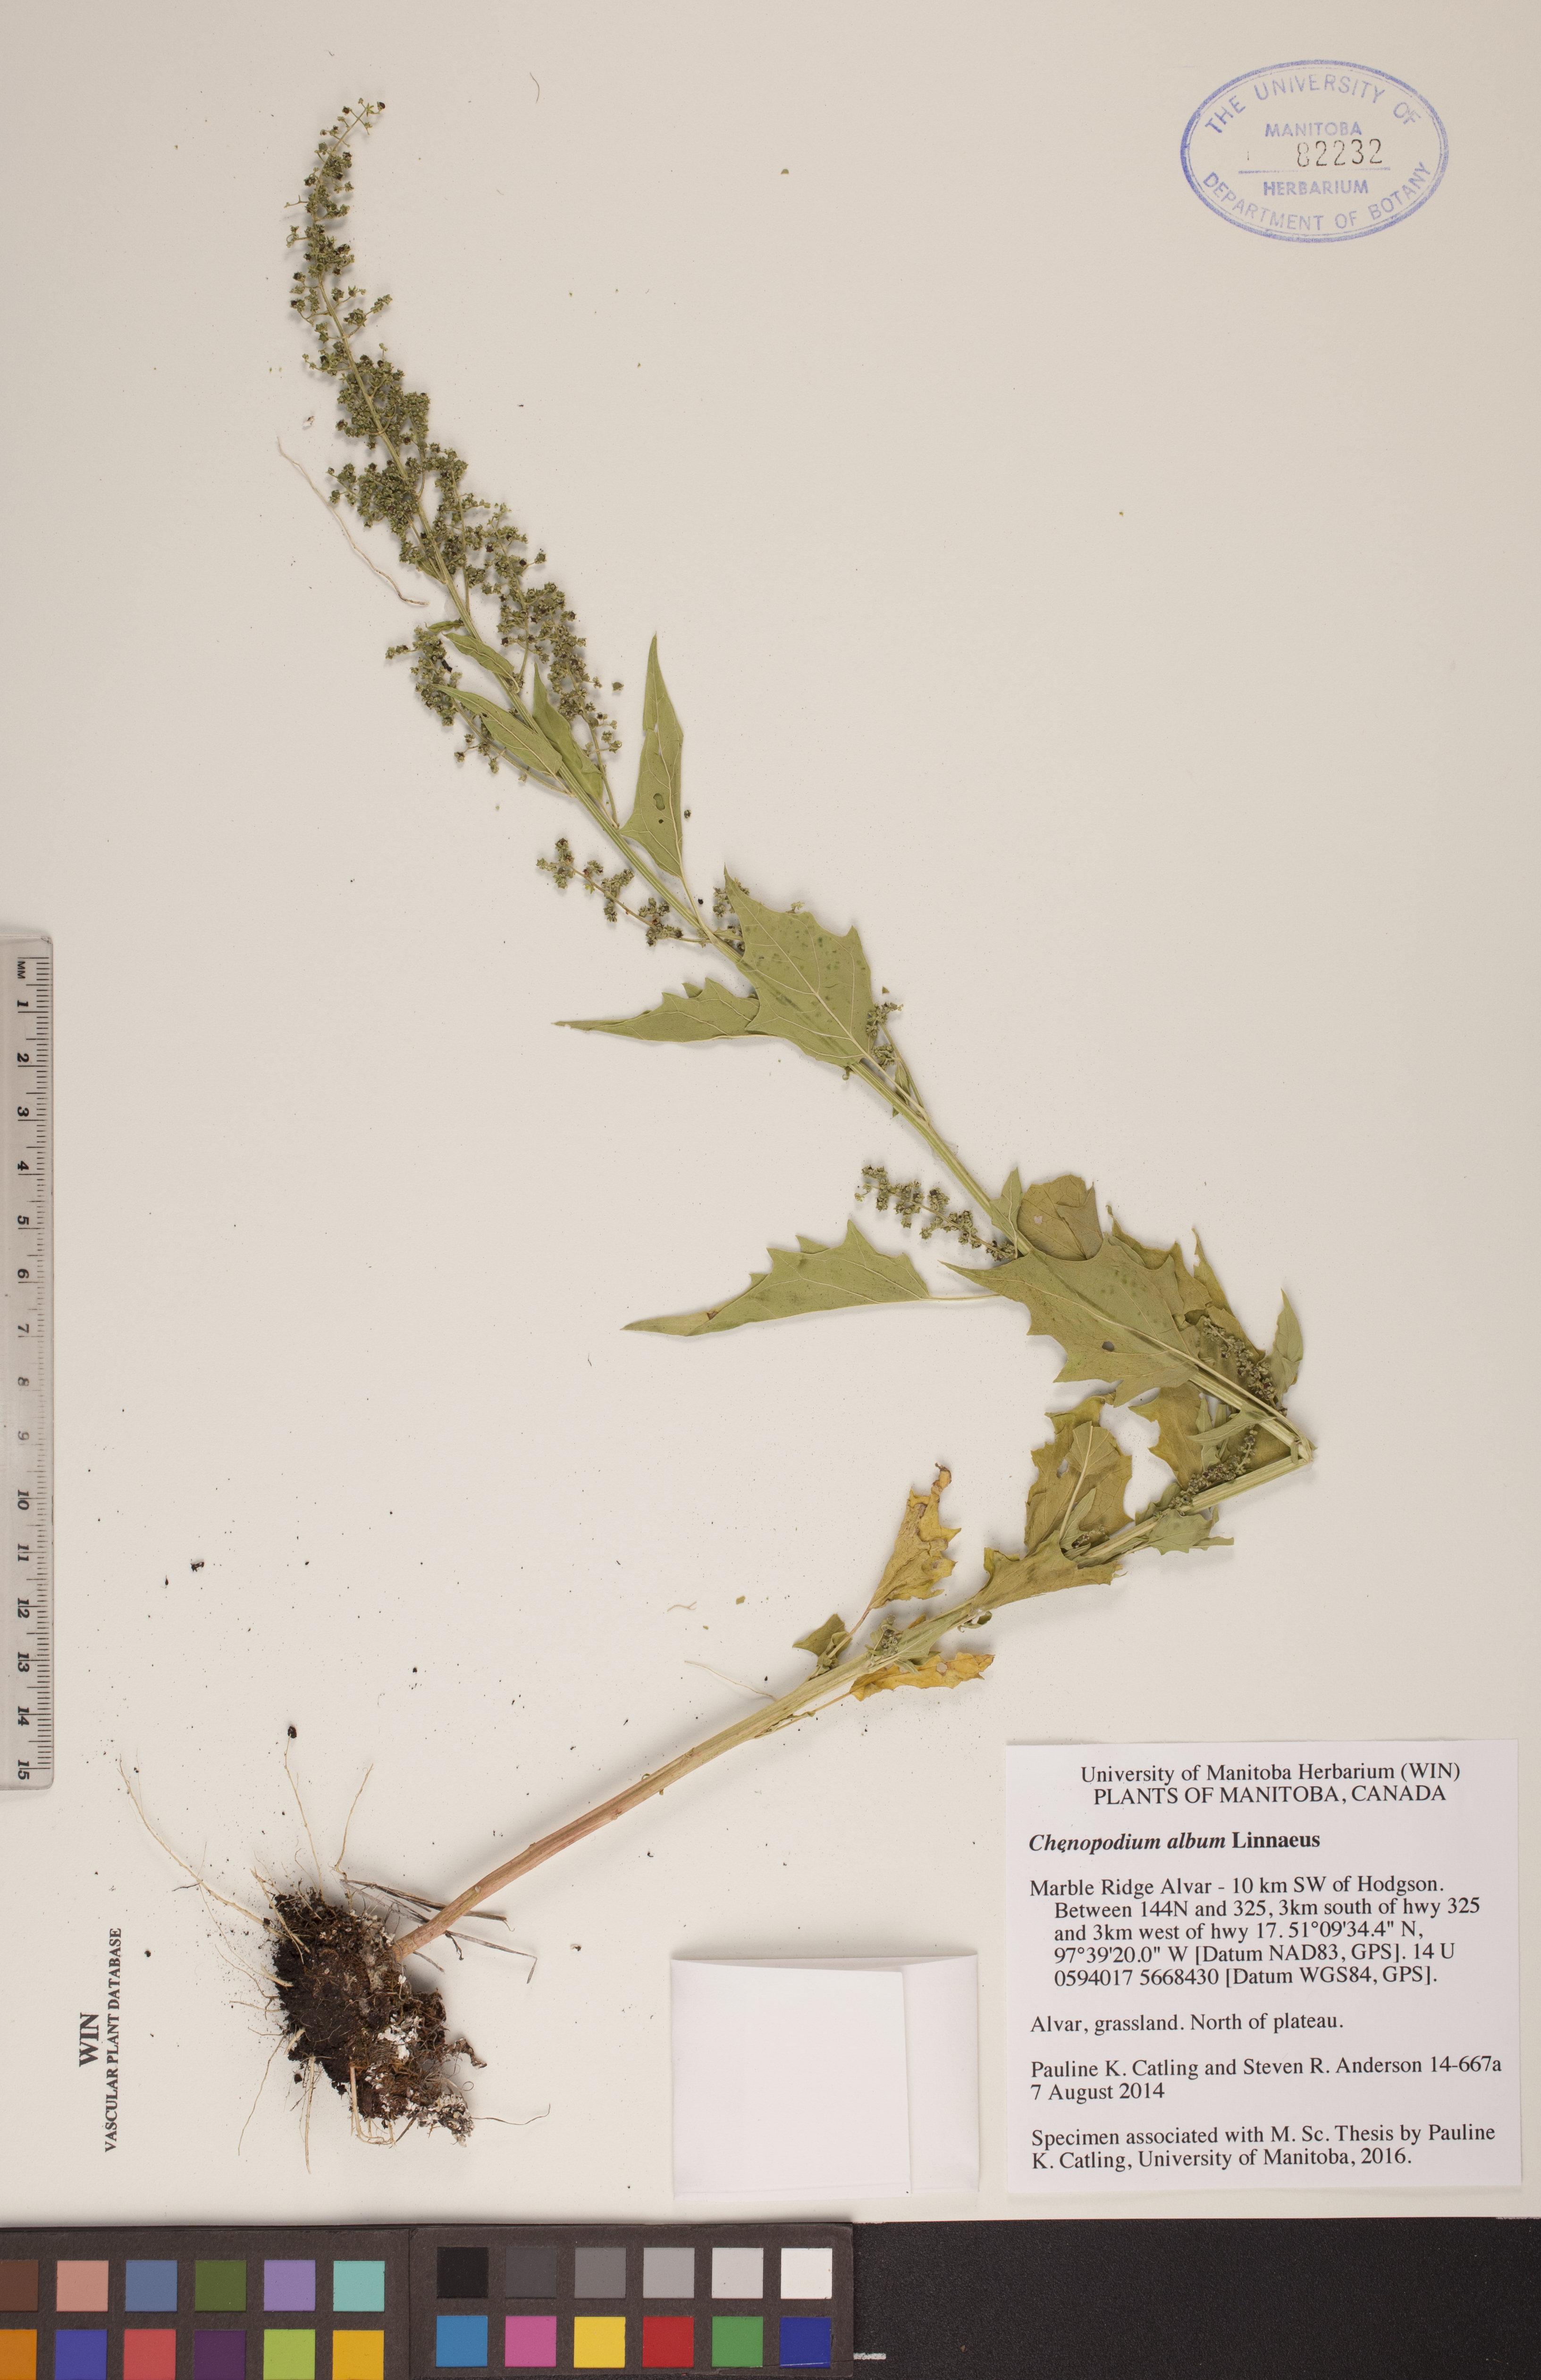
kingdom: Plantae
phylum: Tracheophyta
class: Magnoliopsida
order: Caryophyllales
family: Amaranthaceae
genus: Chenopodium
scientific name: Chenopodium album
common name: Fat-hen
